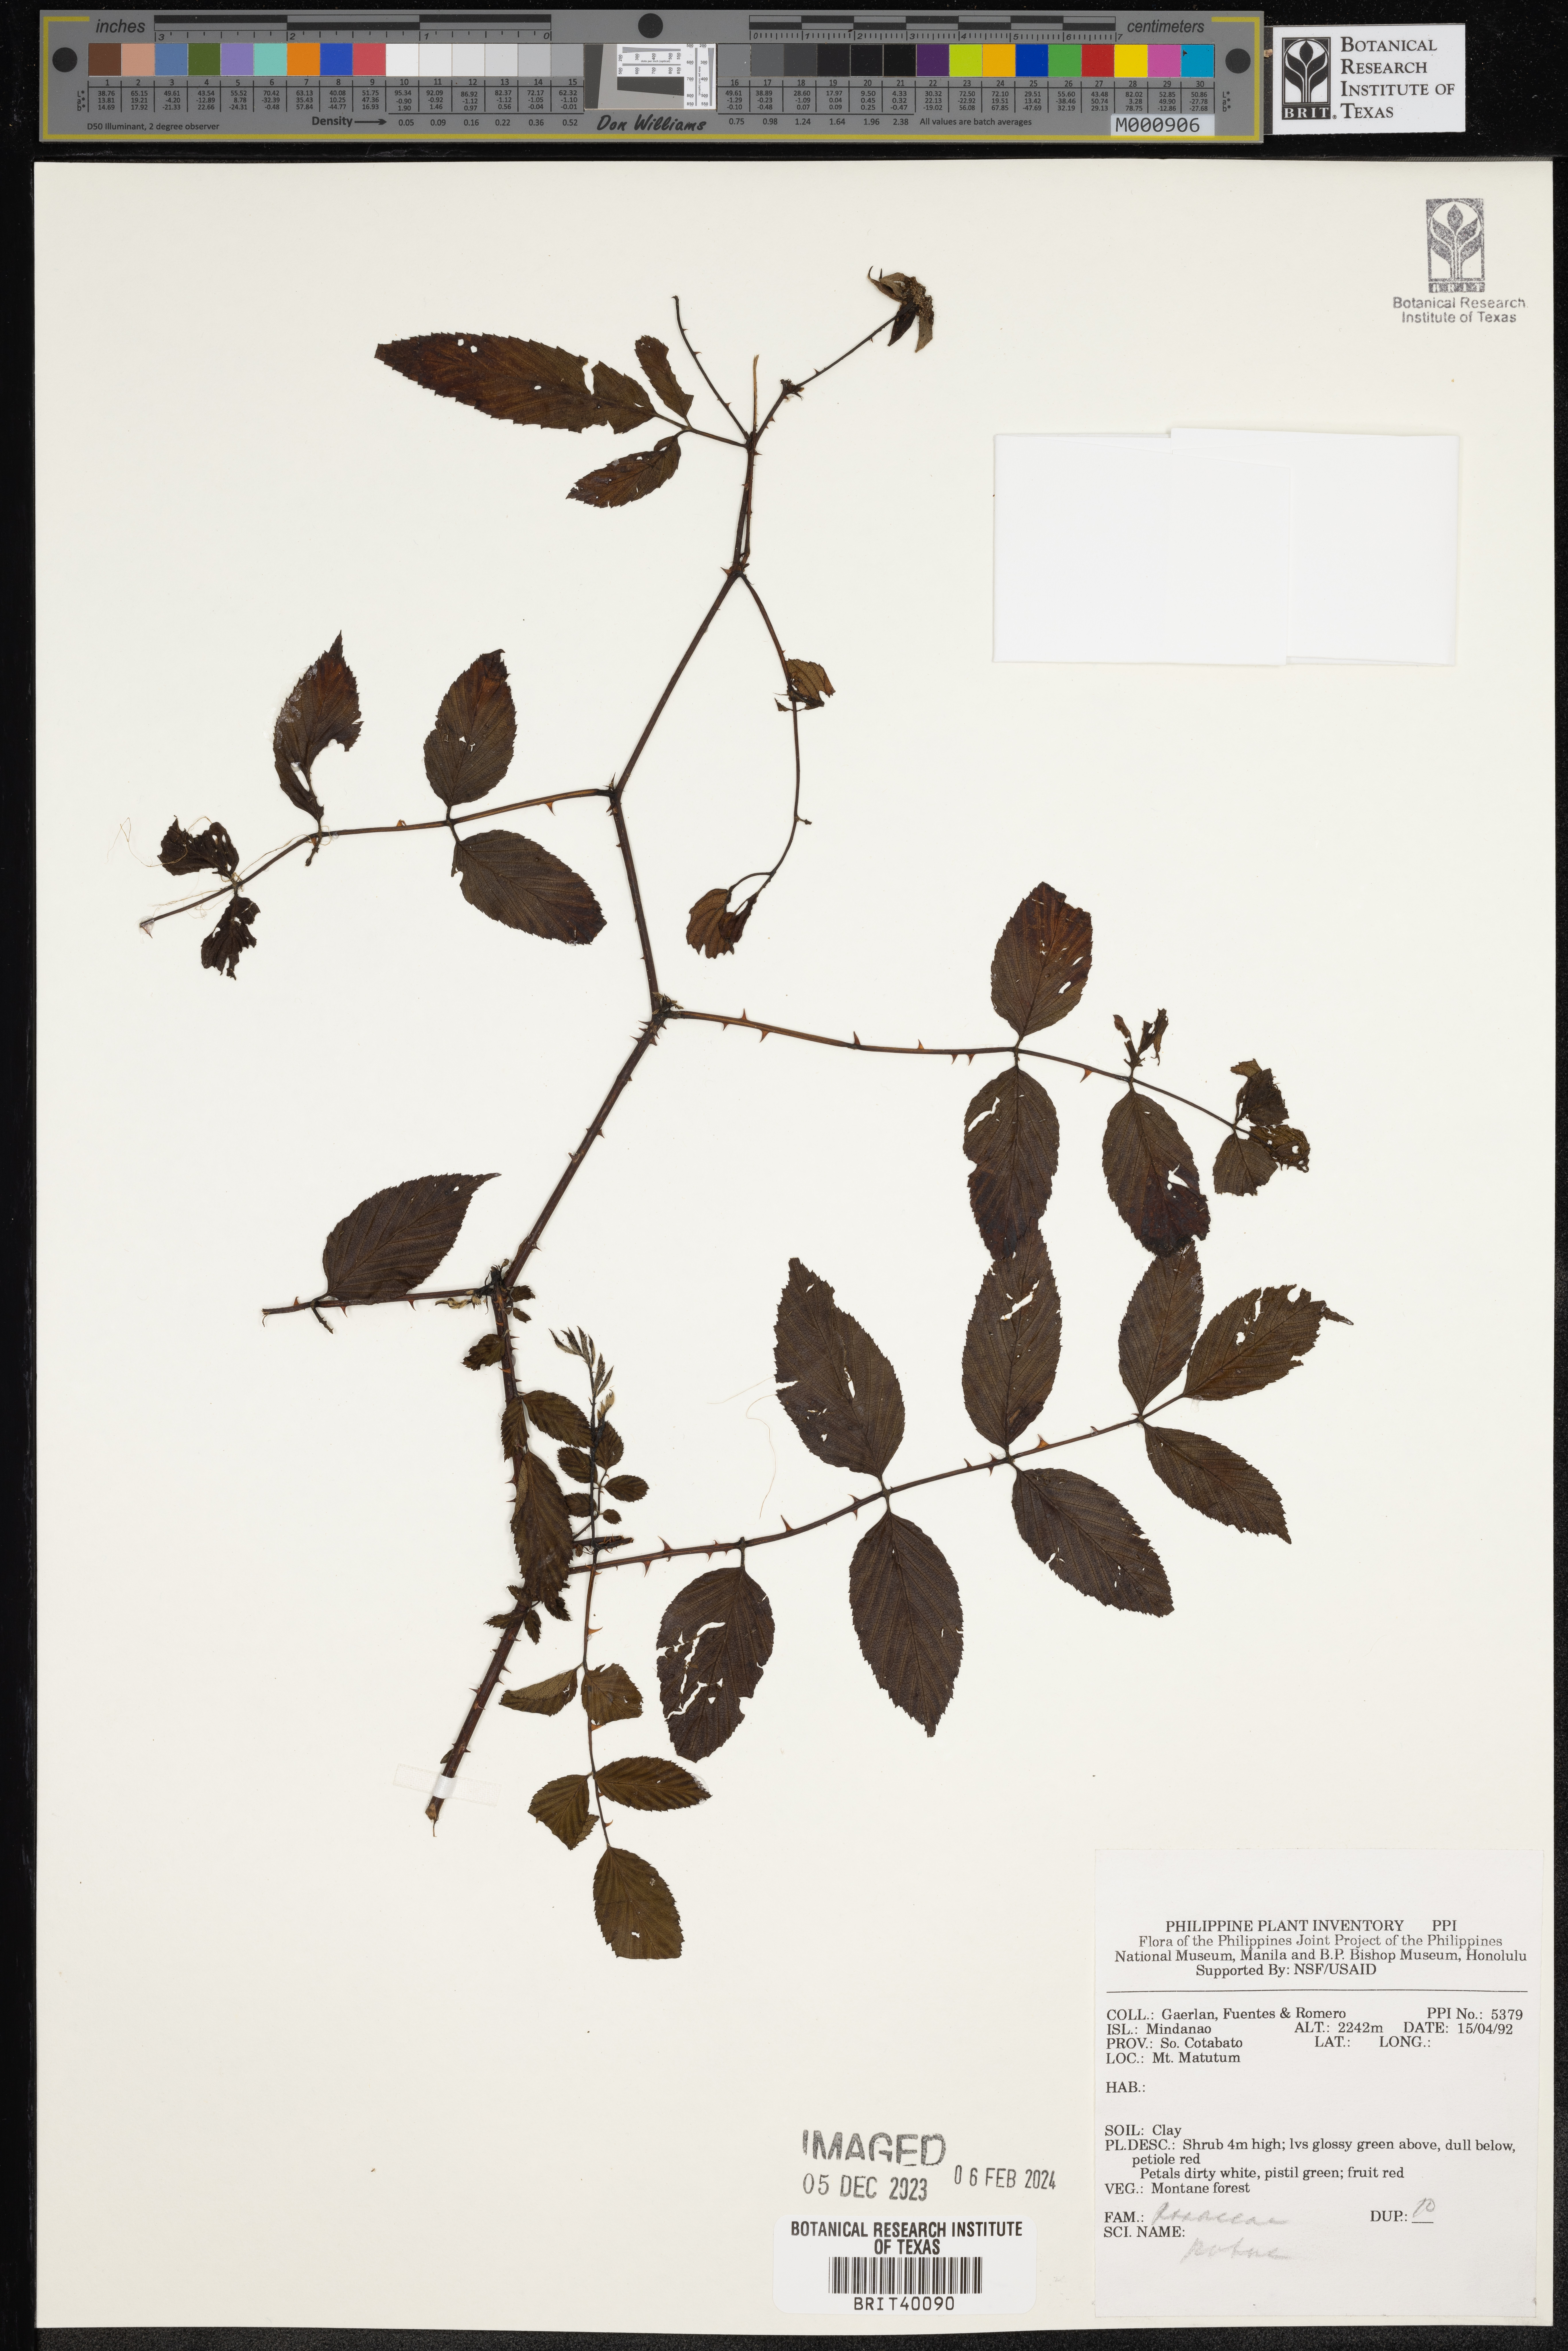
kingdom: Plantae
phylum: Tracheophyta
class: Magnoliopsida
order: Rosales
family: Rosaceae
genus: Rubus
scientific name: Rubus
